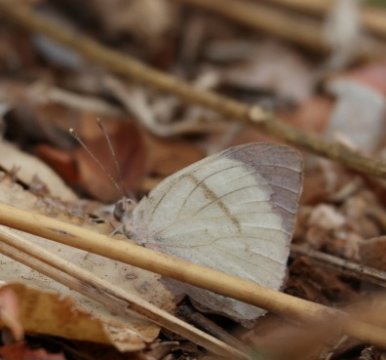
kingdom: Animalia
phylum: Arthropoda
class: Insecta
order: Lepidoptera
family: Pieridae
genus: Colotis
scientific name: Colotis ione
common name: Bushveld Purple Tip
